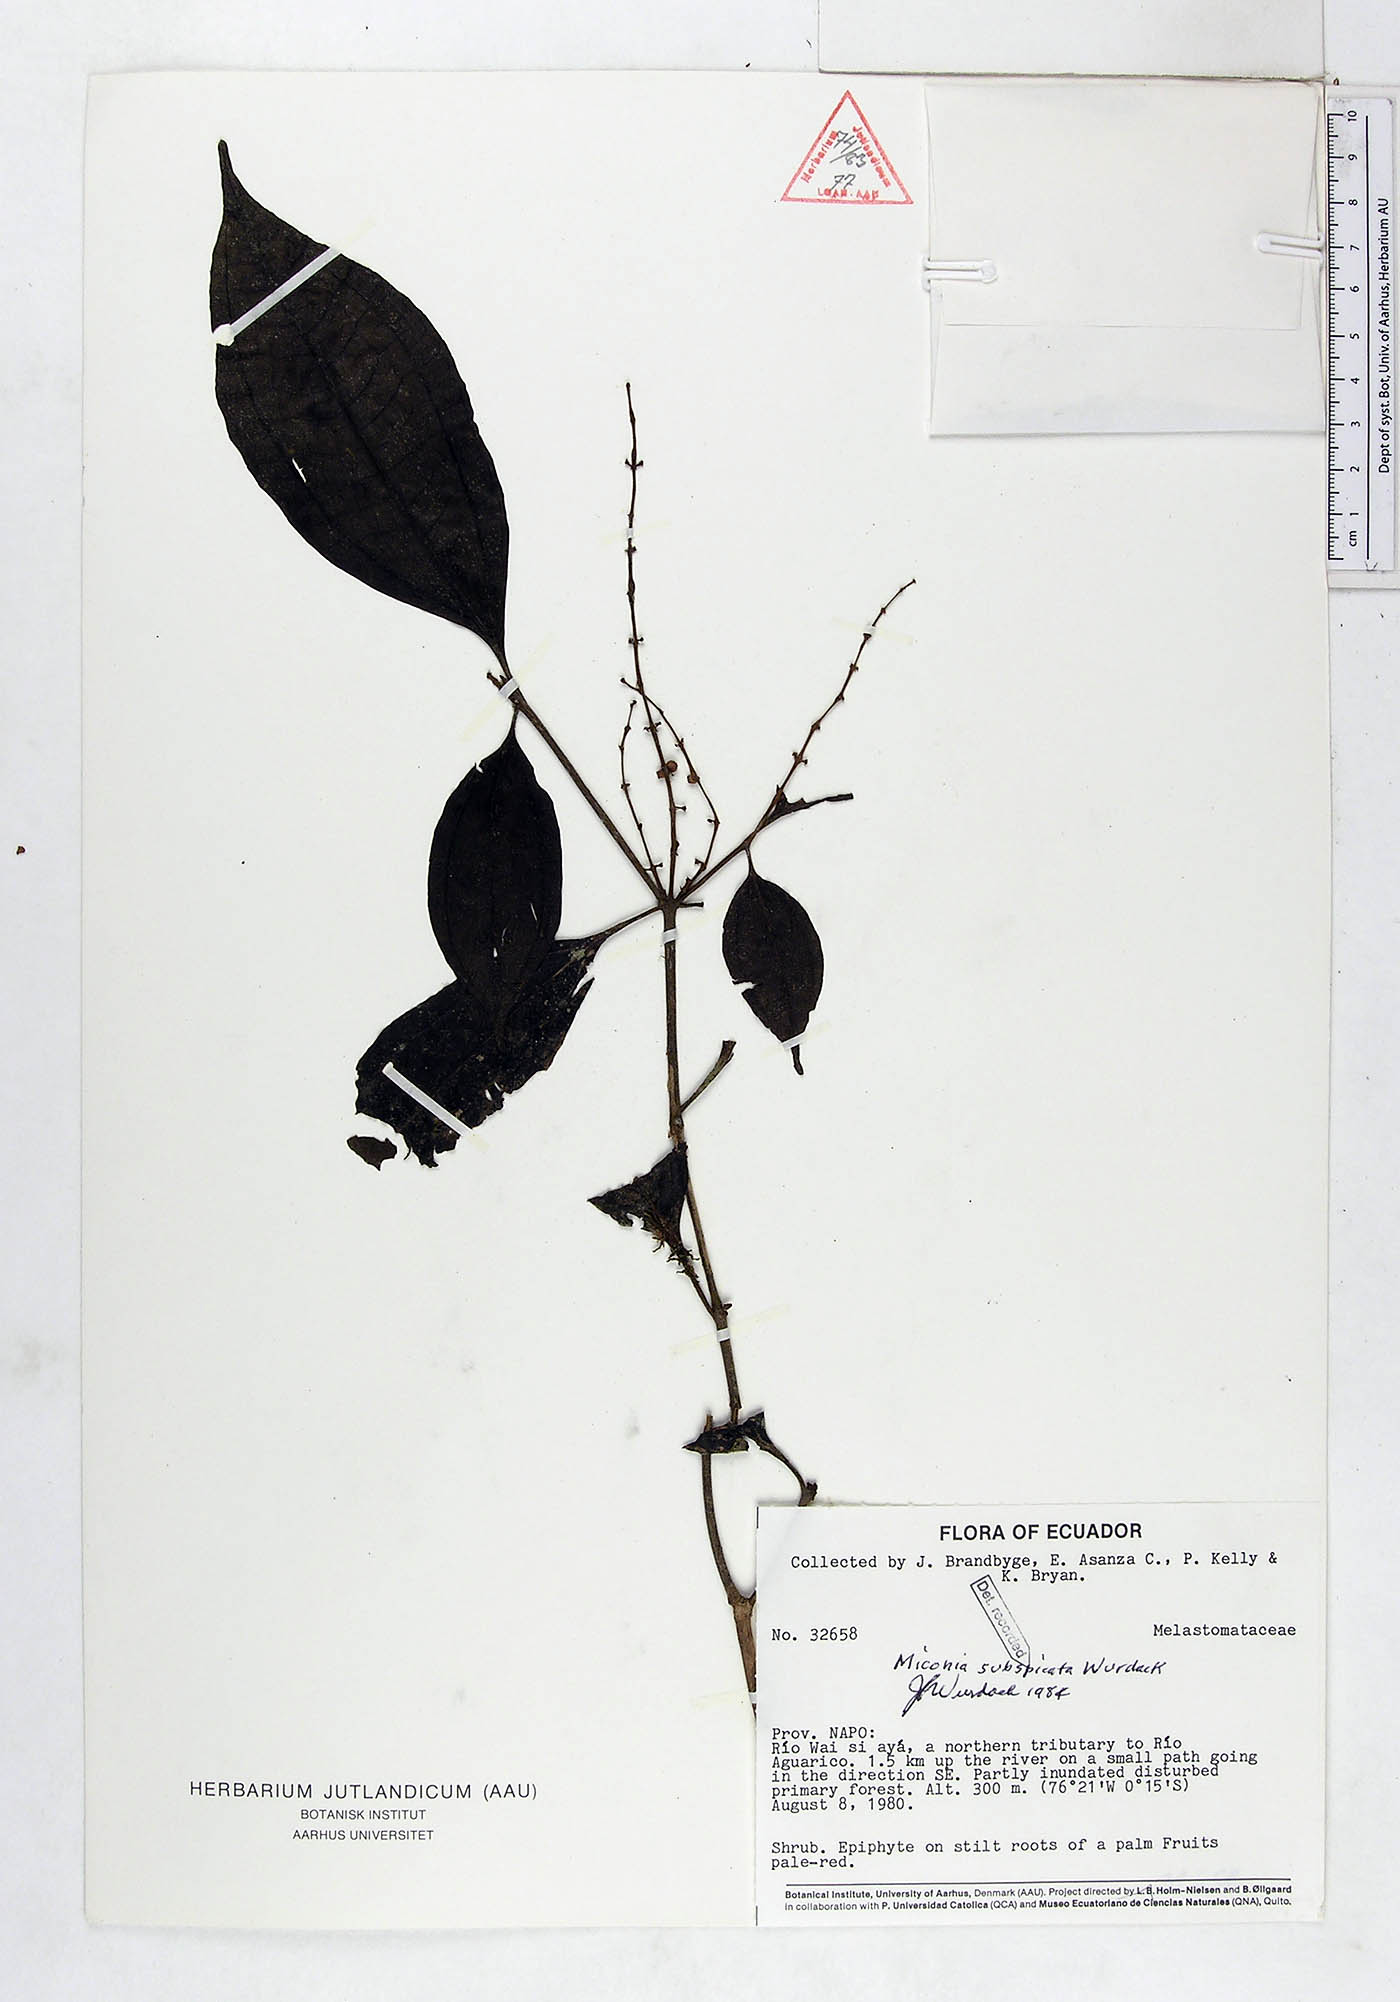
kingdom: Plantae
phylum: Tracheophyta
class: Magnoliopsida
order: Myrtales
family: Melastomataceae
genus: Miconia
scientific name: Miconia subspicata
